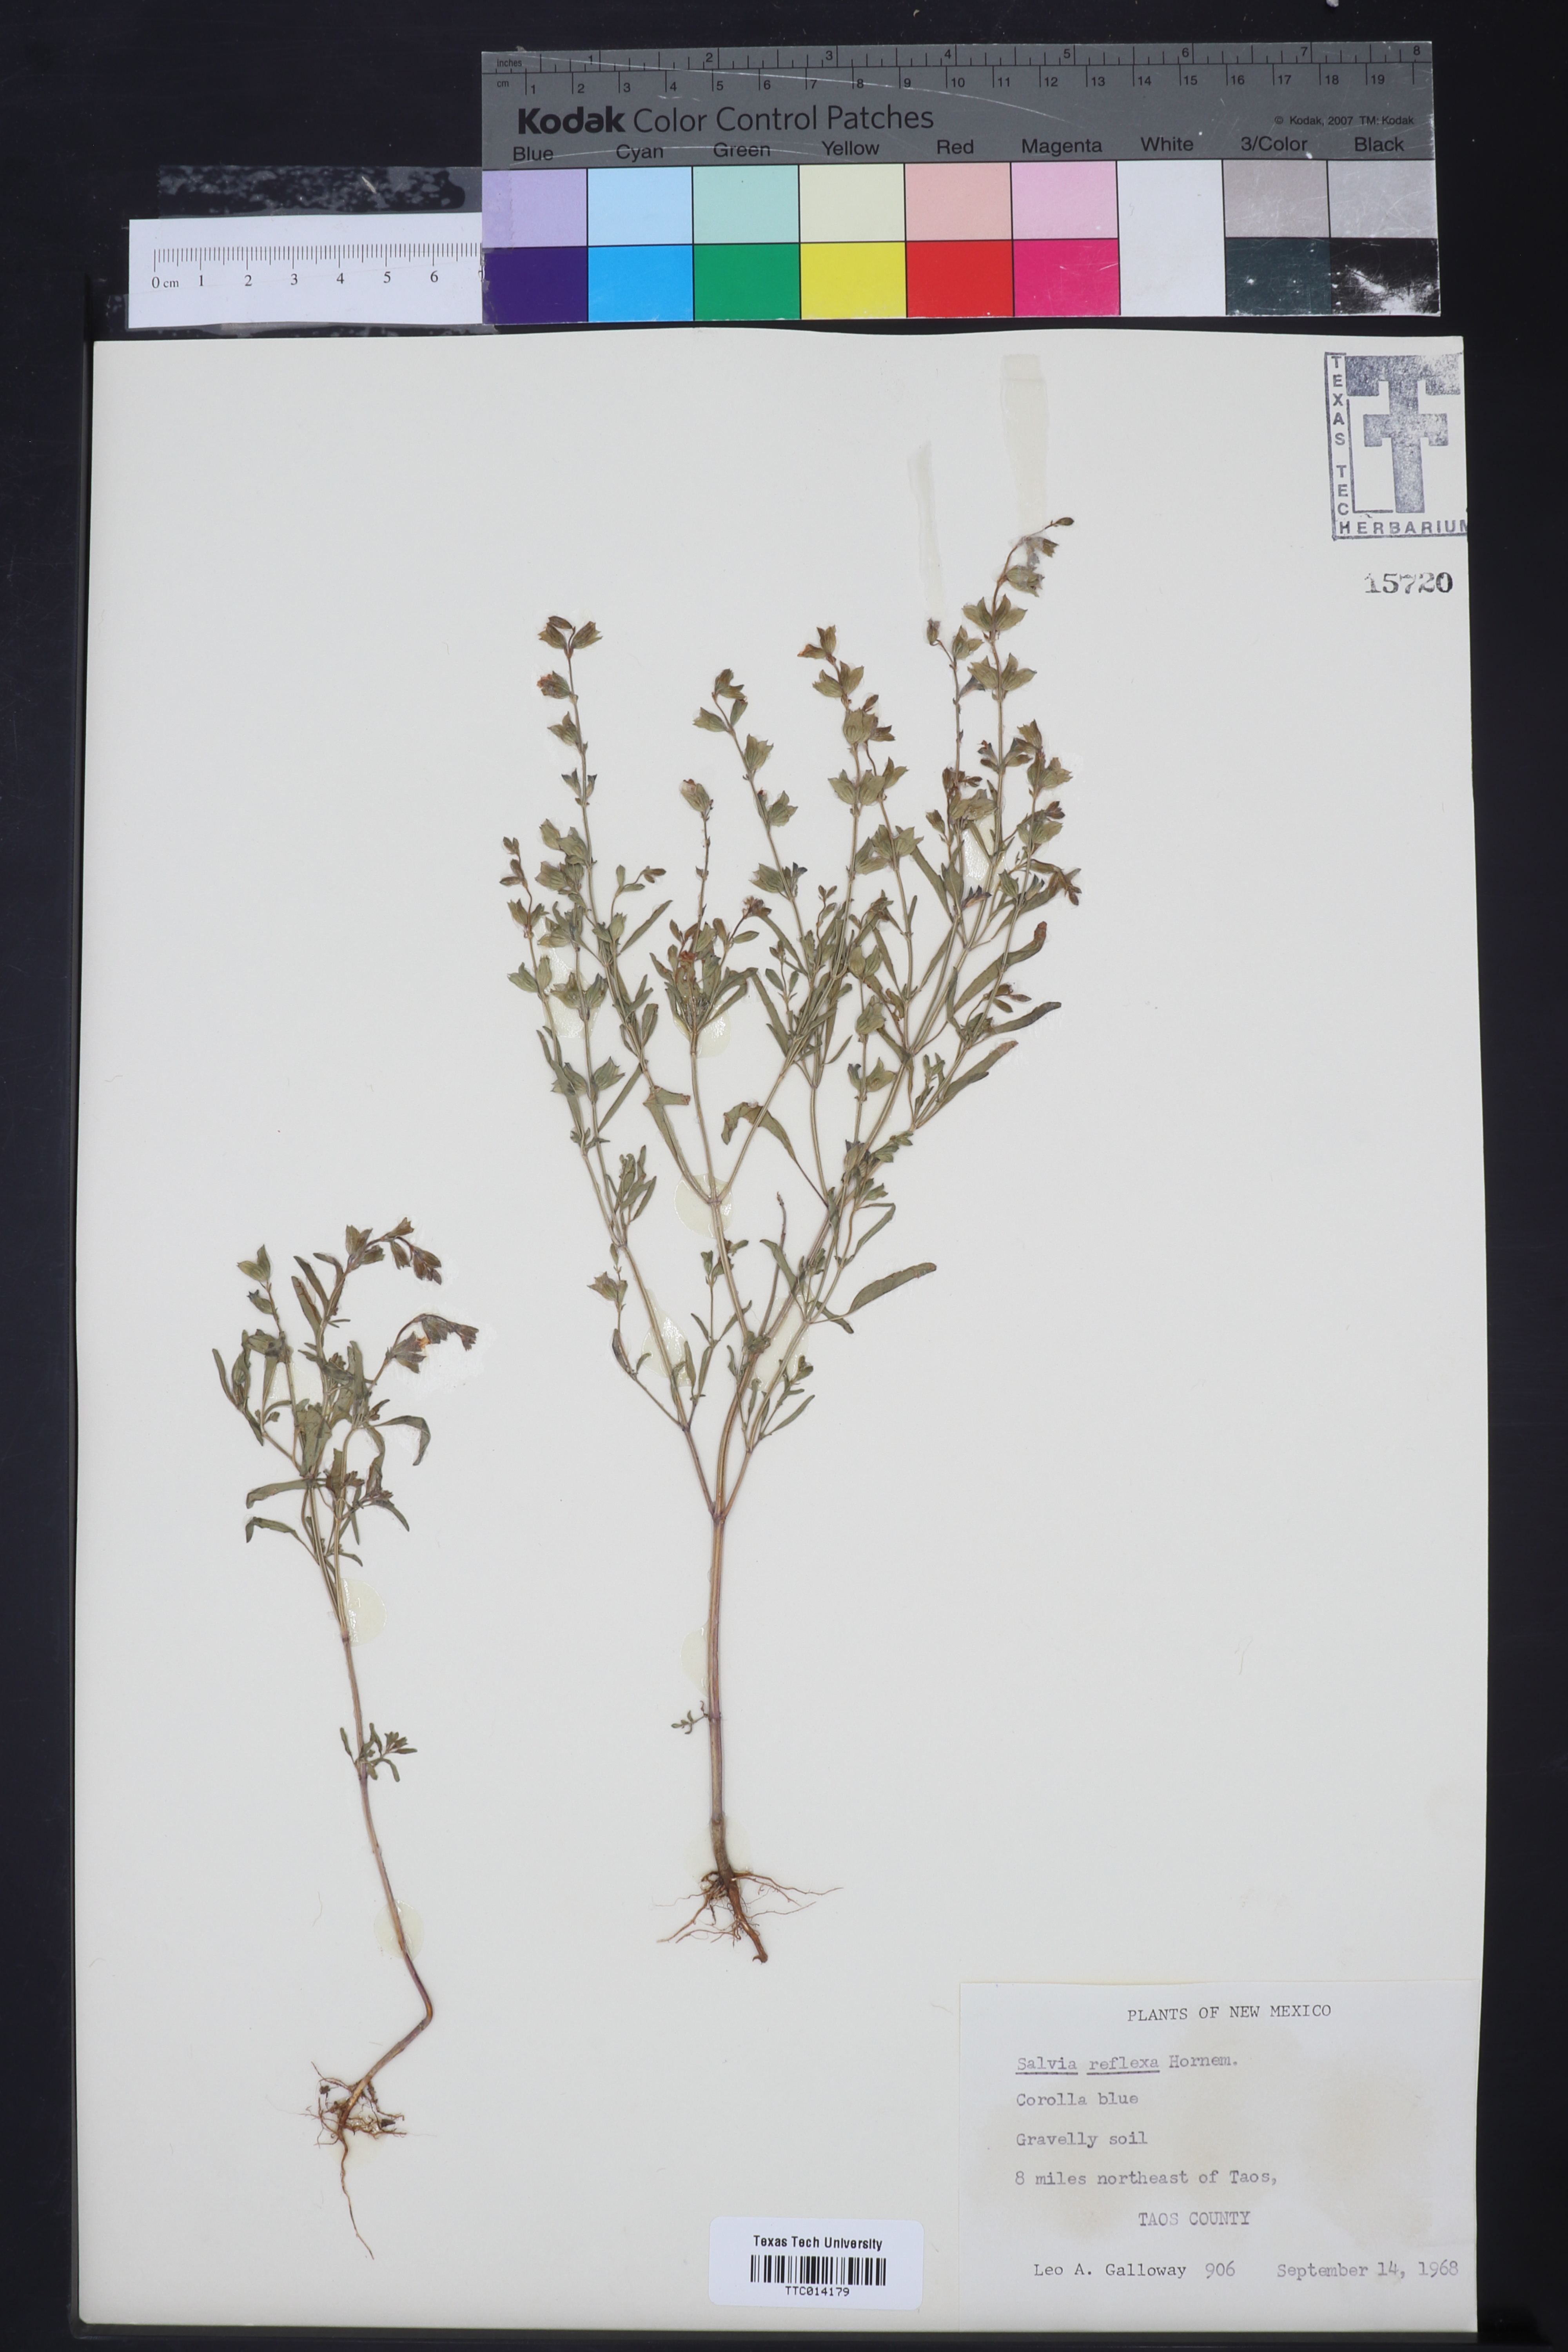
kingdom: Plantae
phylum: Tracheophyta
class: Magnoliopsida
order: Lamiales
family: Lamiaceae
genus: Salvia
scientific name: Salvia reflexa
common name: Mintweed
